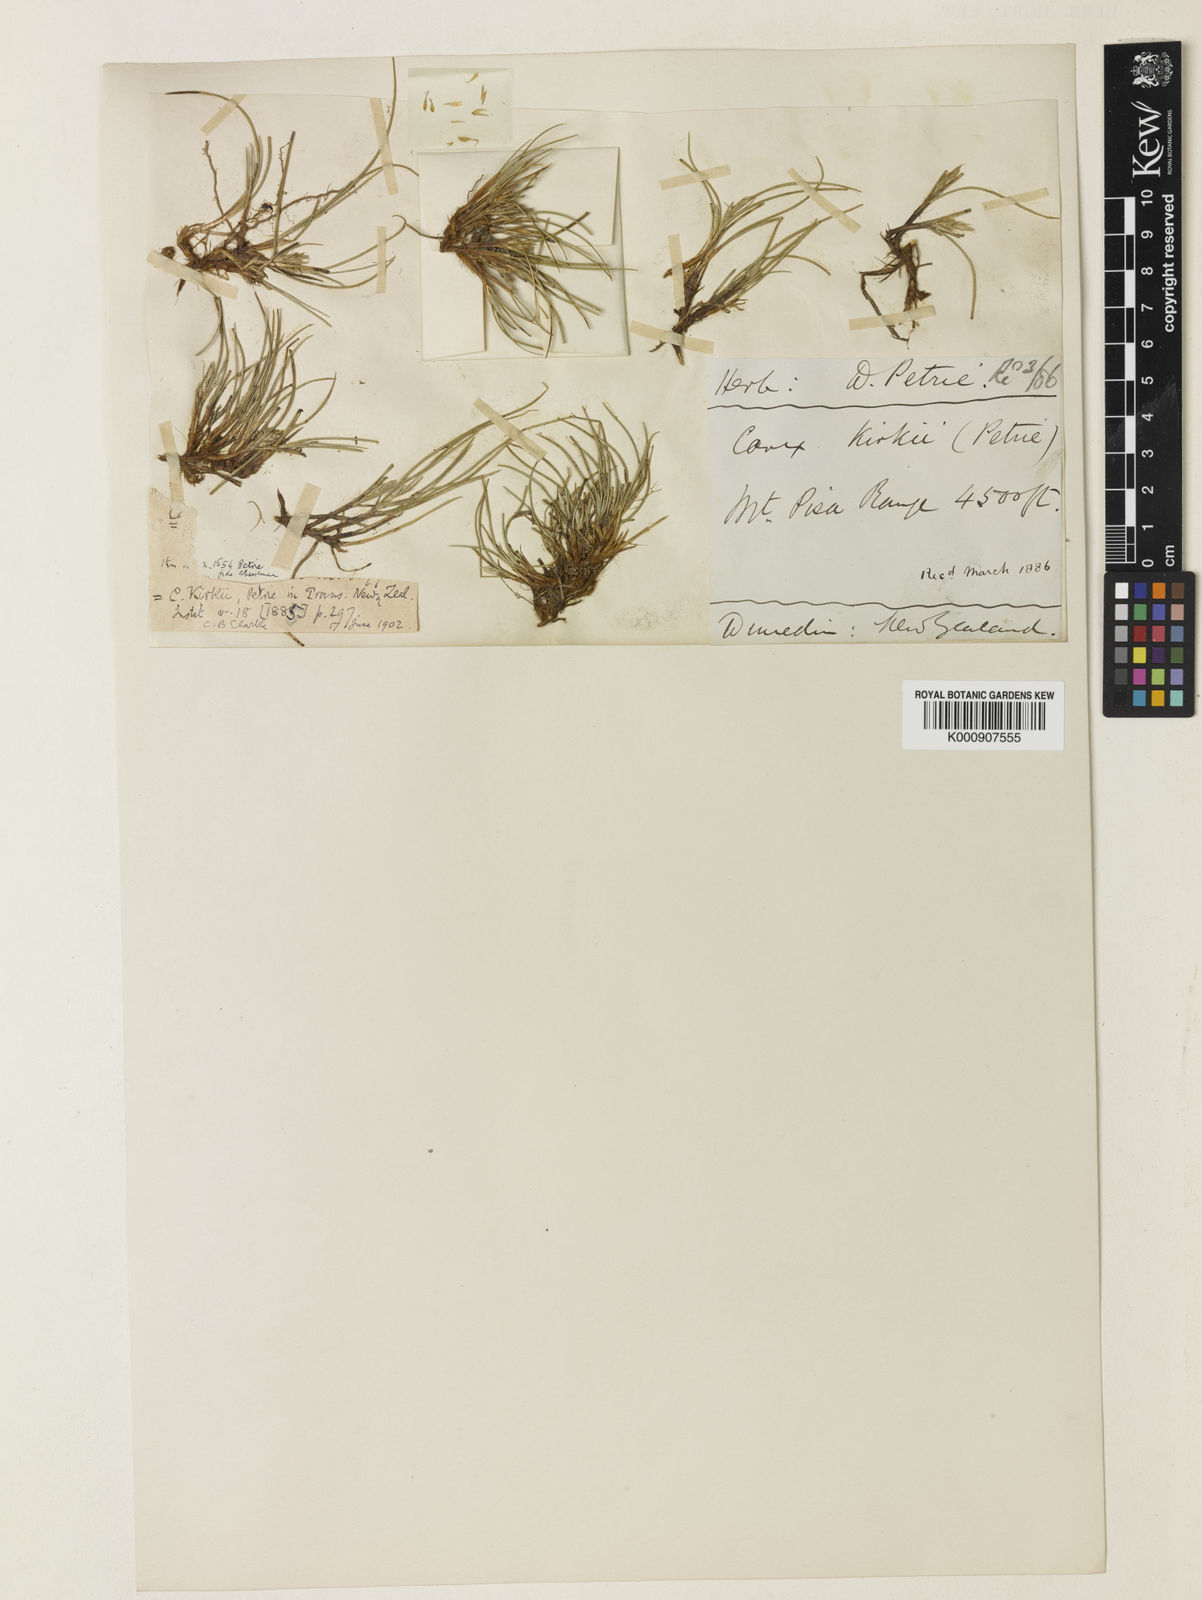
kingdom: Plantae
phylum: Tracheophyta
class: Liliopsida
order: Poales
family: Cyperaceae
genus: Carex
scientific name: Carex kirkii
